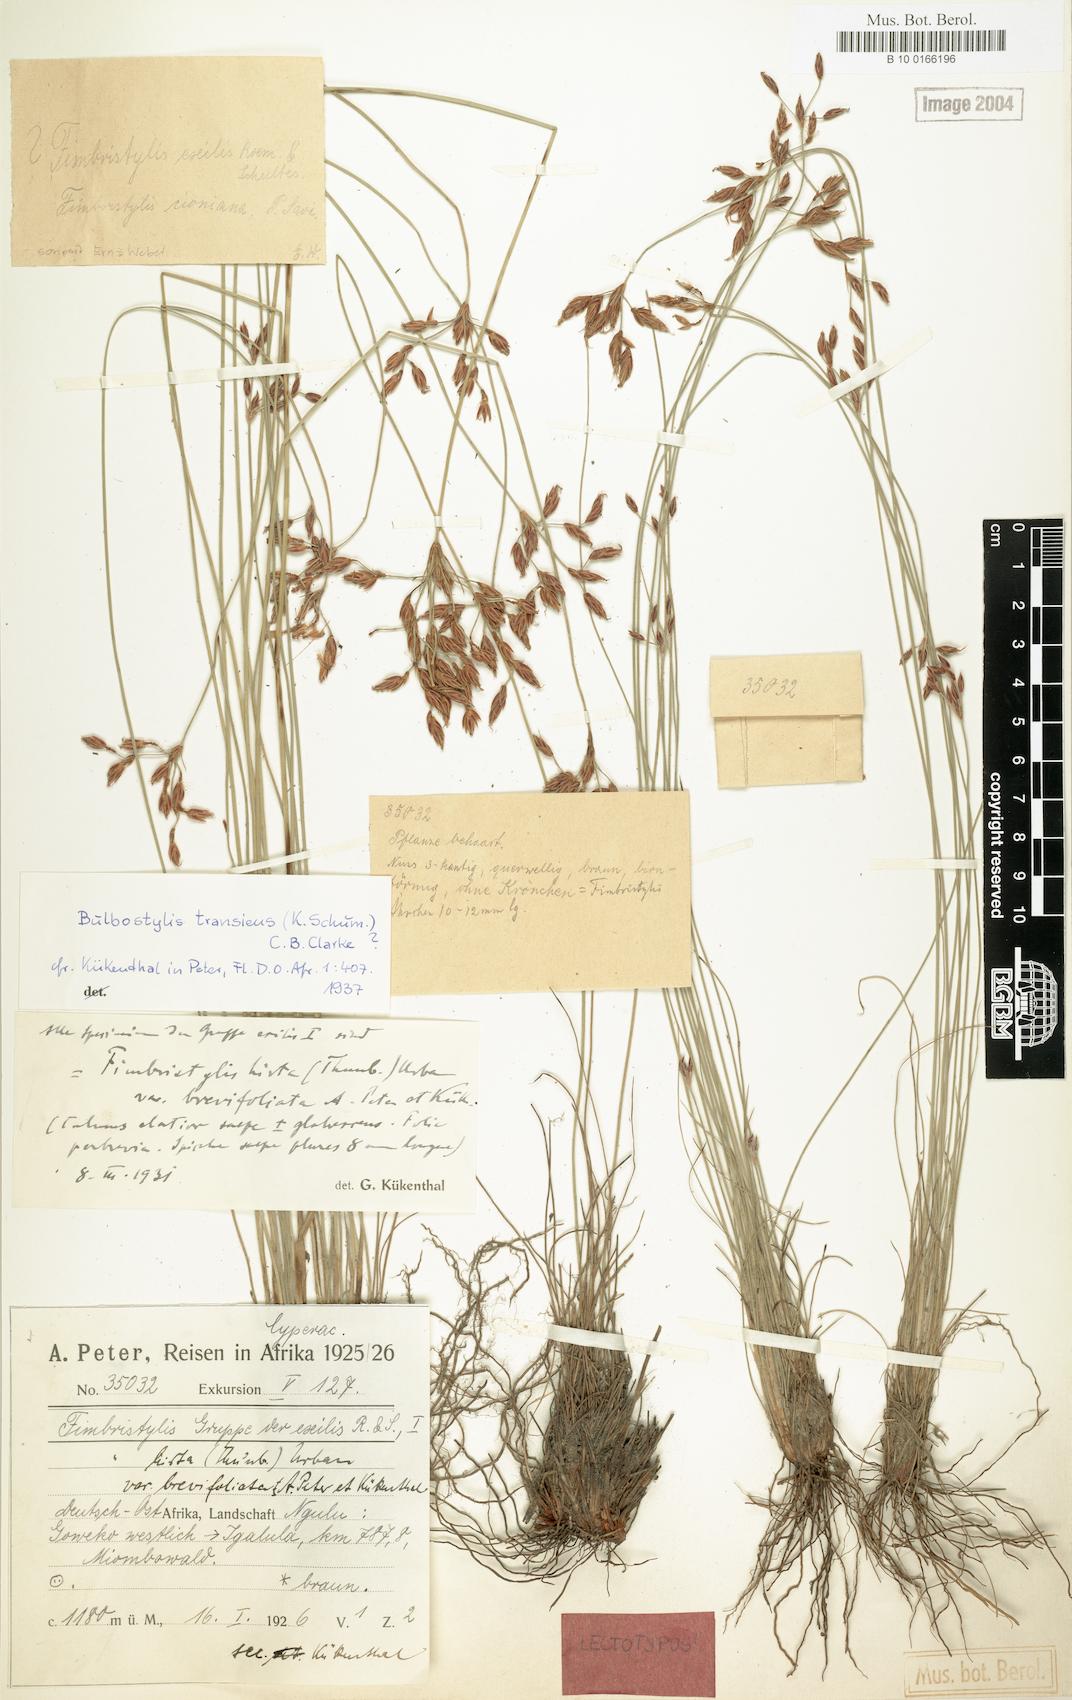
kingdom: Plantae
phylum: Tracheophyta
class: Liliopsida
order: Poales
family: Cyperaceae
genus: Bulbostylis
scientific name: Bulbostylis boeckeleriana
